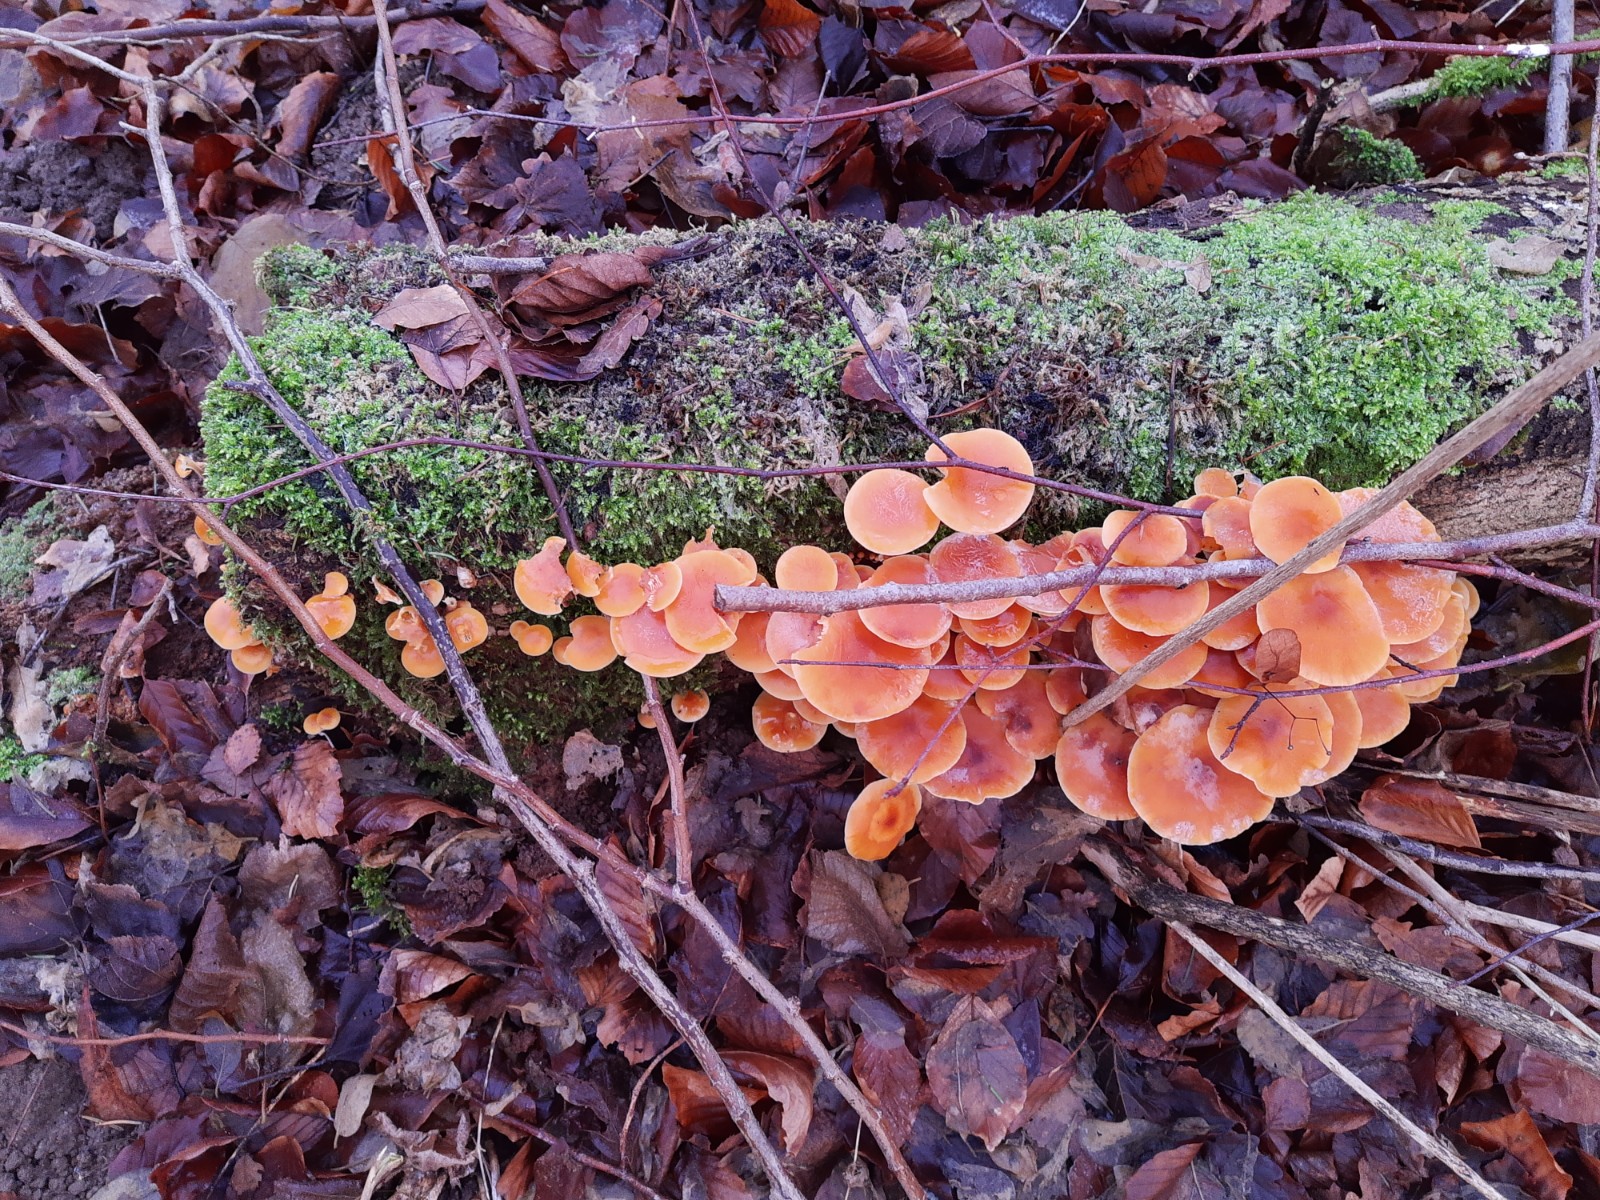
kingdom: Fungi
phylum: Basidiomycota
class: Agaricomycetes
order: Agaricales
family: Physalacriaceae
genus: Flammulina
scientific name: Flammulina velutipes
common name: gul fløjlsfod
